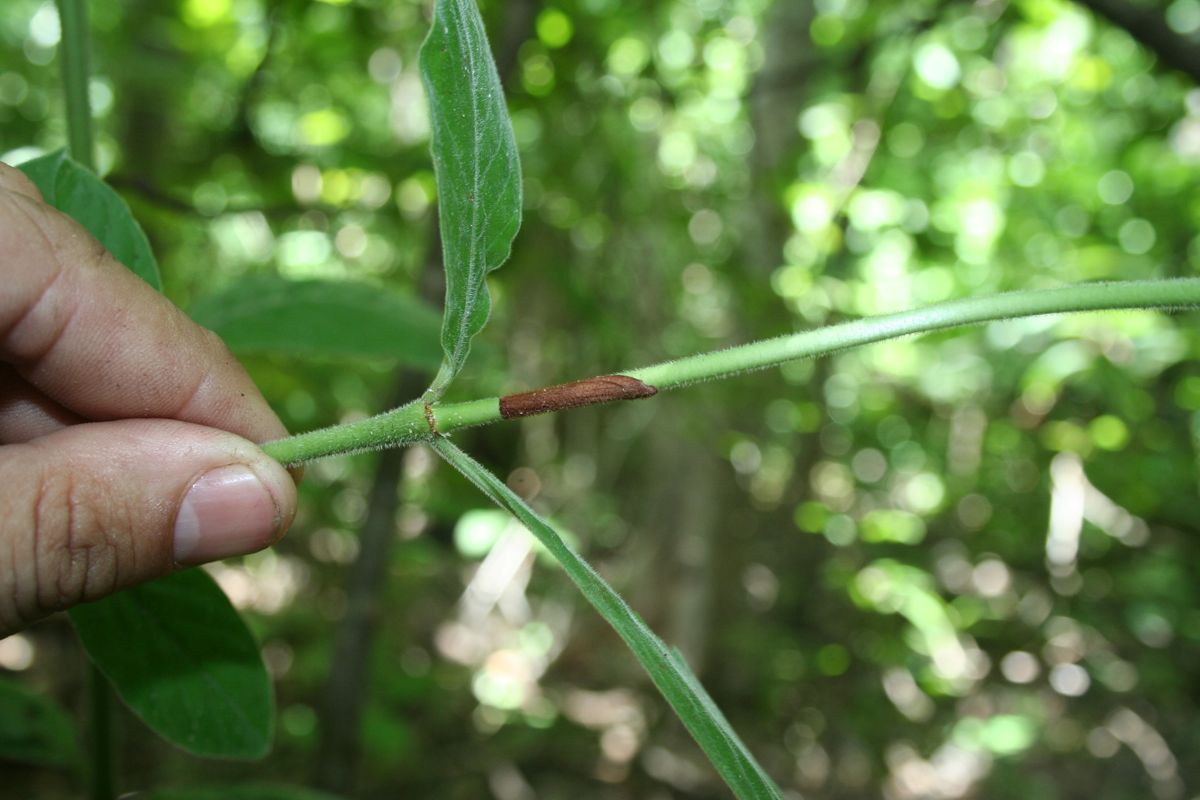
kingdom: Plantae
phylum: Tracheophyta
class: Magnoliopsida
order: Gentianales
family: Rubiaceae
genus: Psychotria
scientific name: Psychotria erythrocarpa
